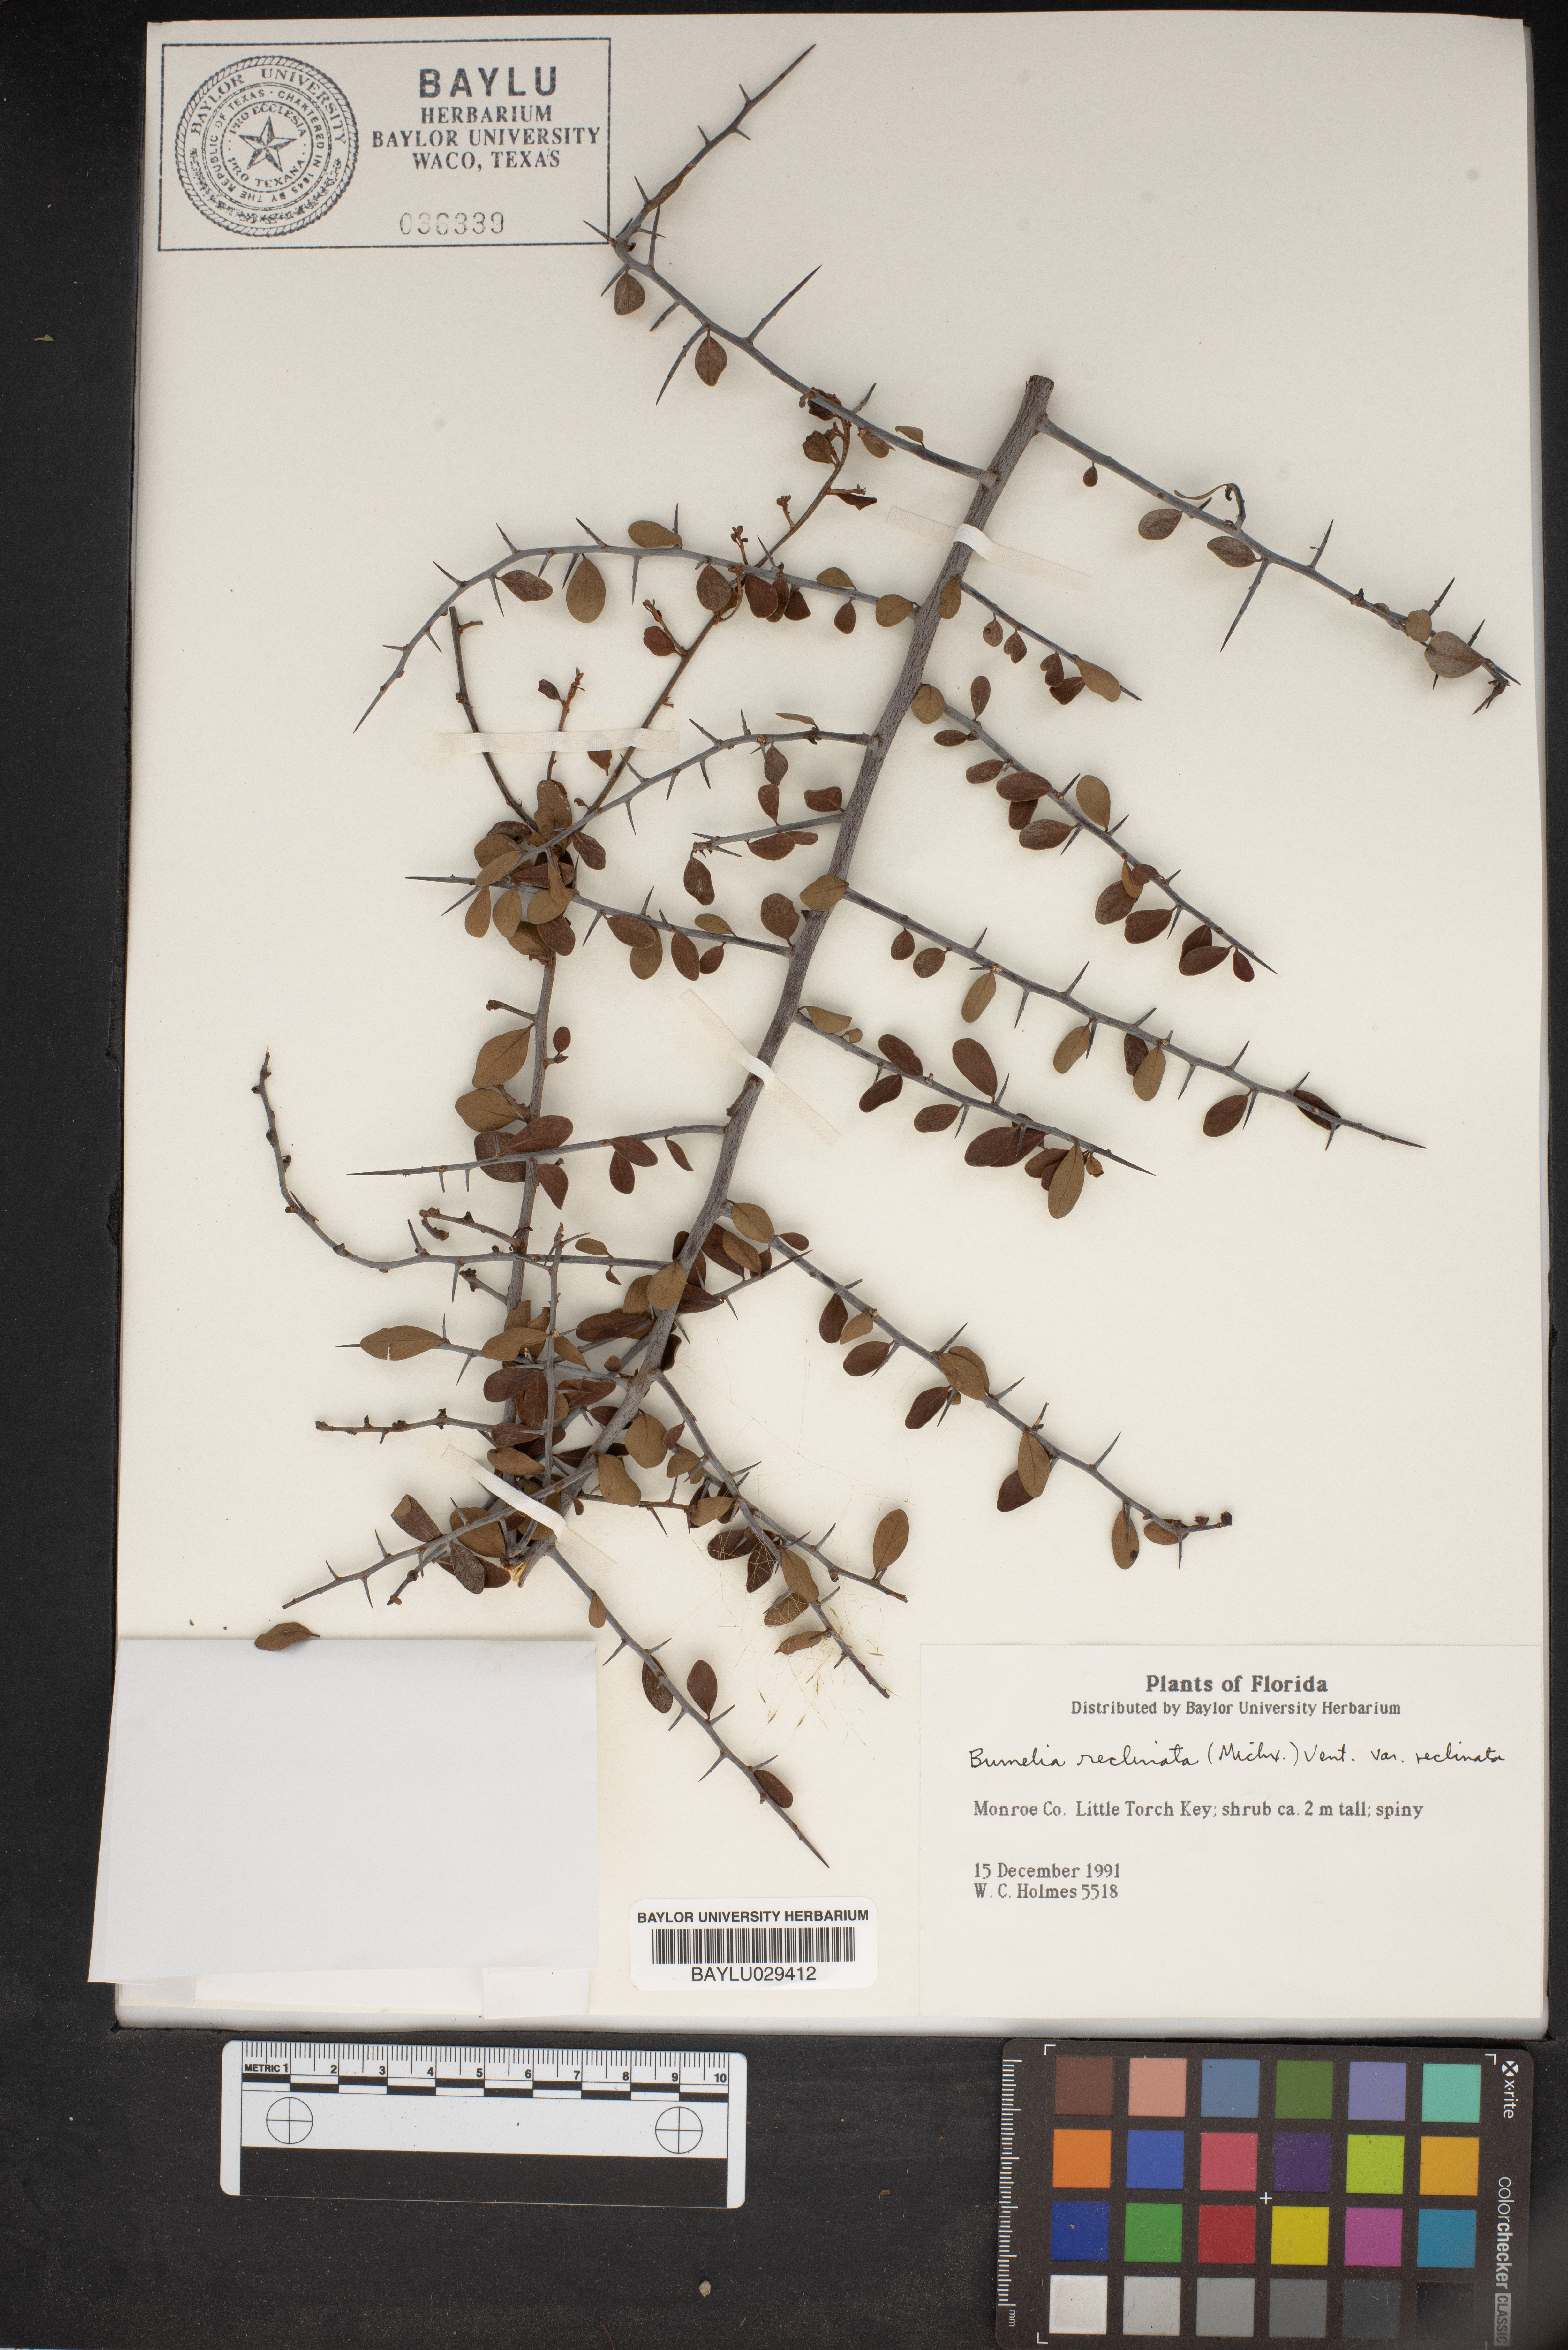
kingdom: Plantae
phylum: Tracheophyta
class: Magnoliopsida
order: Ericales
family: Sapotaceae
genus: Sideroxylon
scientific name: Sideroxylon reclinatum
